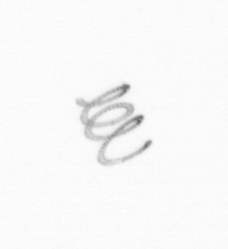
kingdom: Chromista
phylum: Ochrophyta
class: Bacillariophyceae
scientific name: Bacillariophyceae
